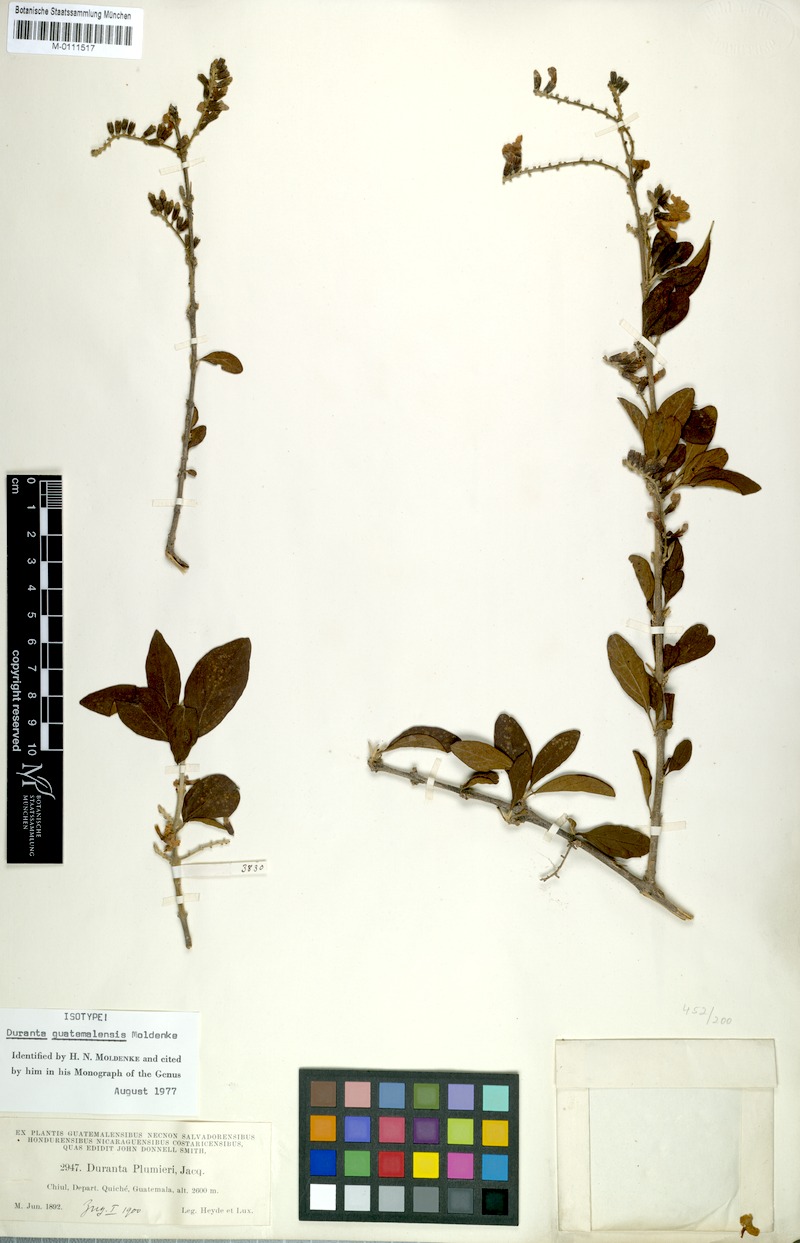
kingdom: Plantae
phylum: Tracheophyta
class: Magnoliopsida
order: Lamiales
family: Verbenaceae
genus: Duranta
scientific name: Duranta guatemalensis
